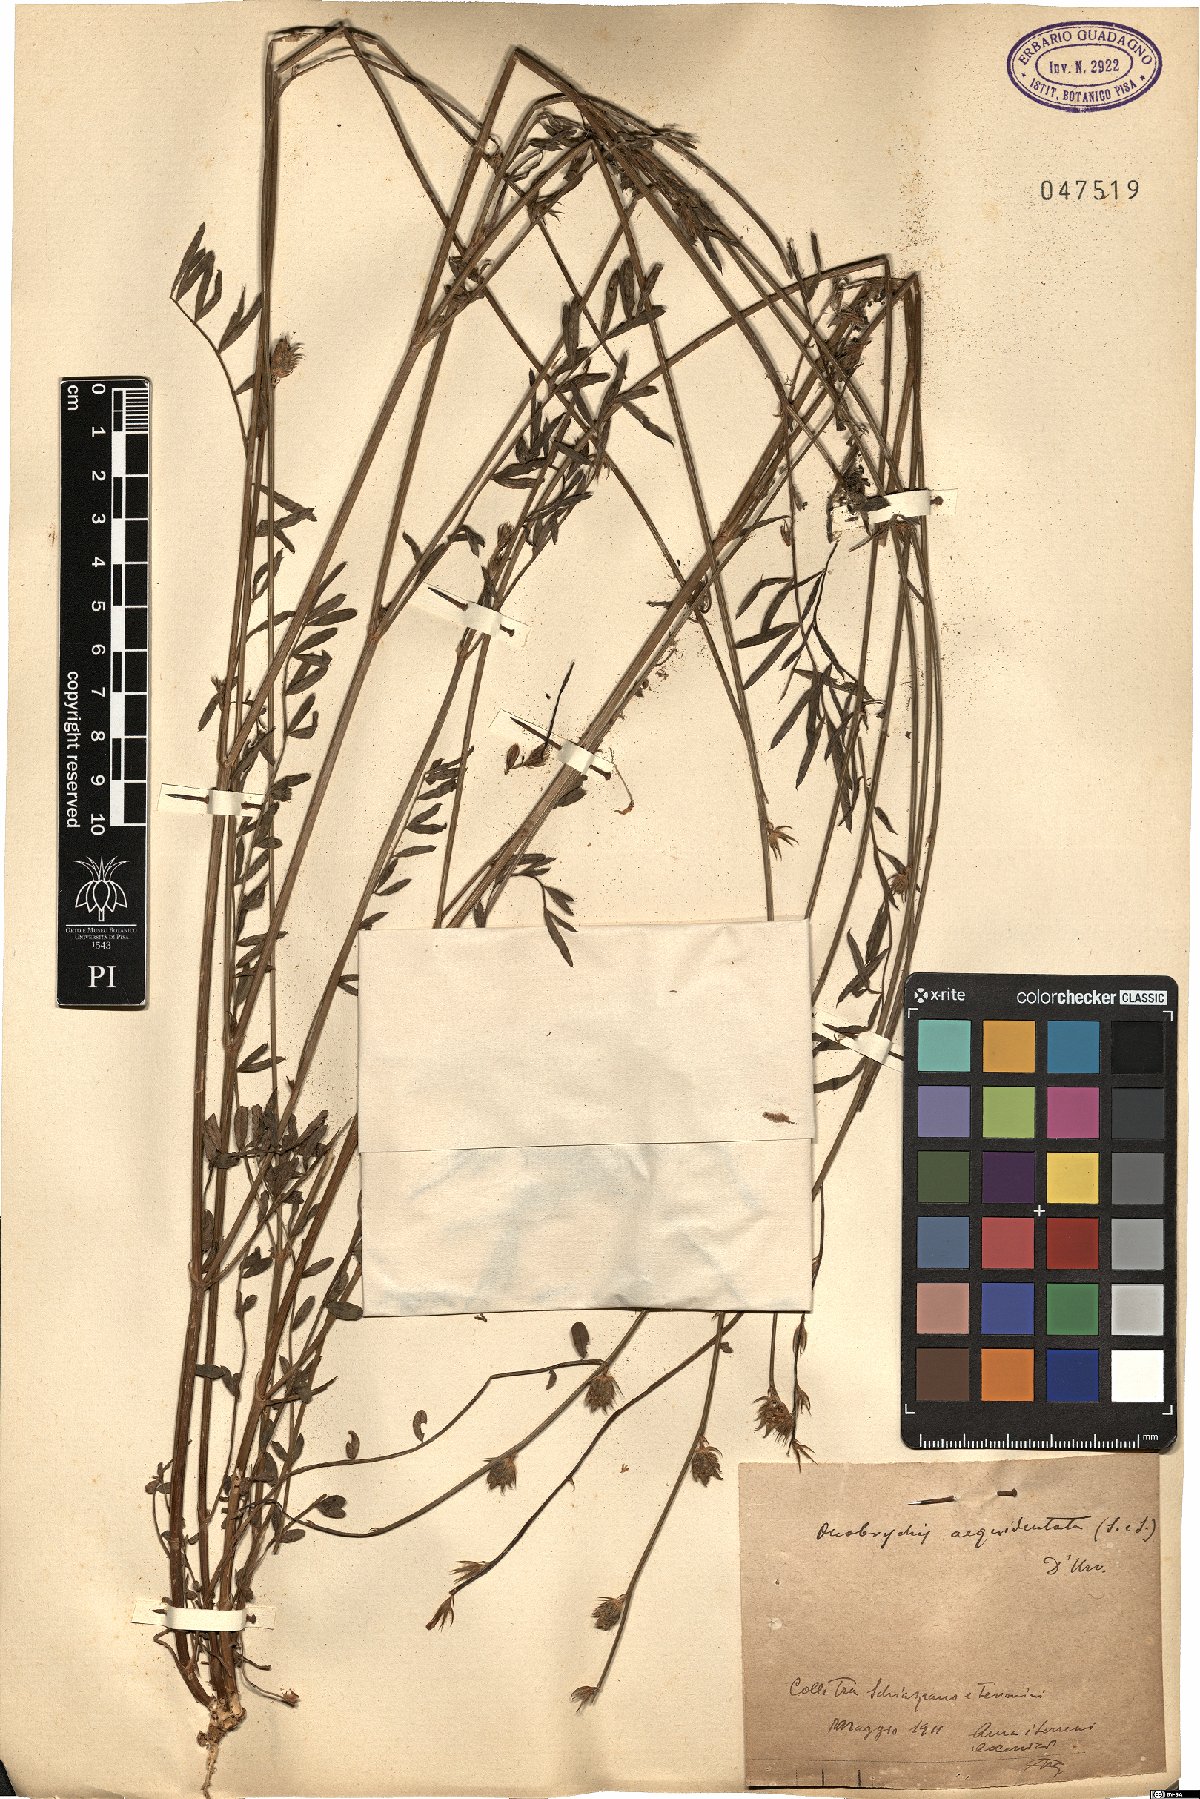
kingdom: Plantae
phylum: Tracheophyta
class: Magnoliopsida
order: Fabales
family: Fabaceae
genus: Onobrychis
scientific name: Onobrychis aequidentata
